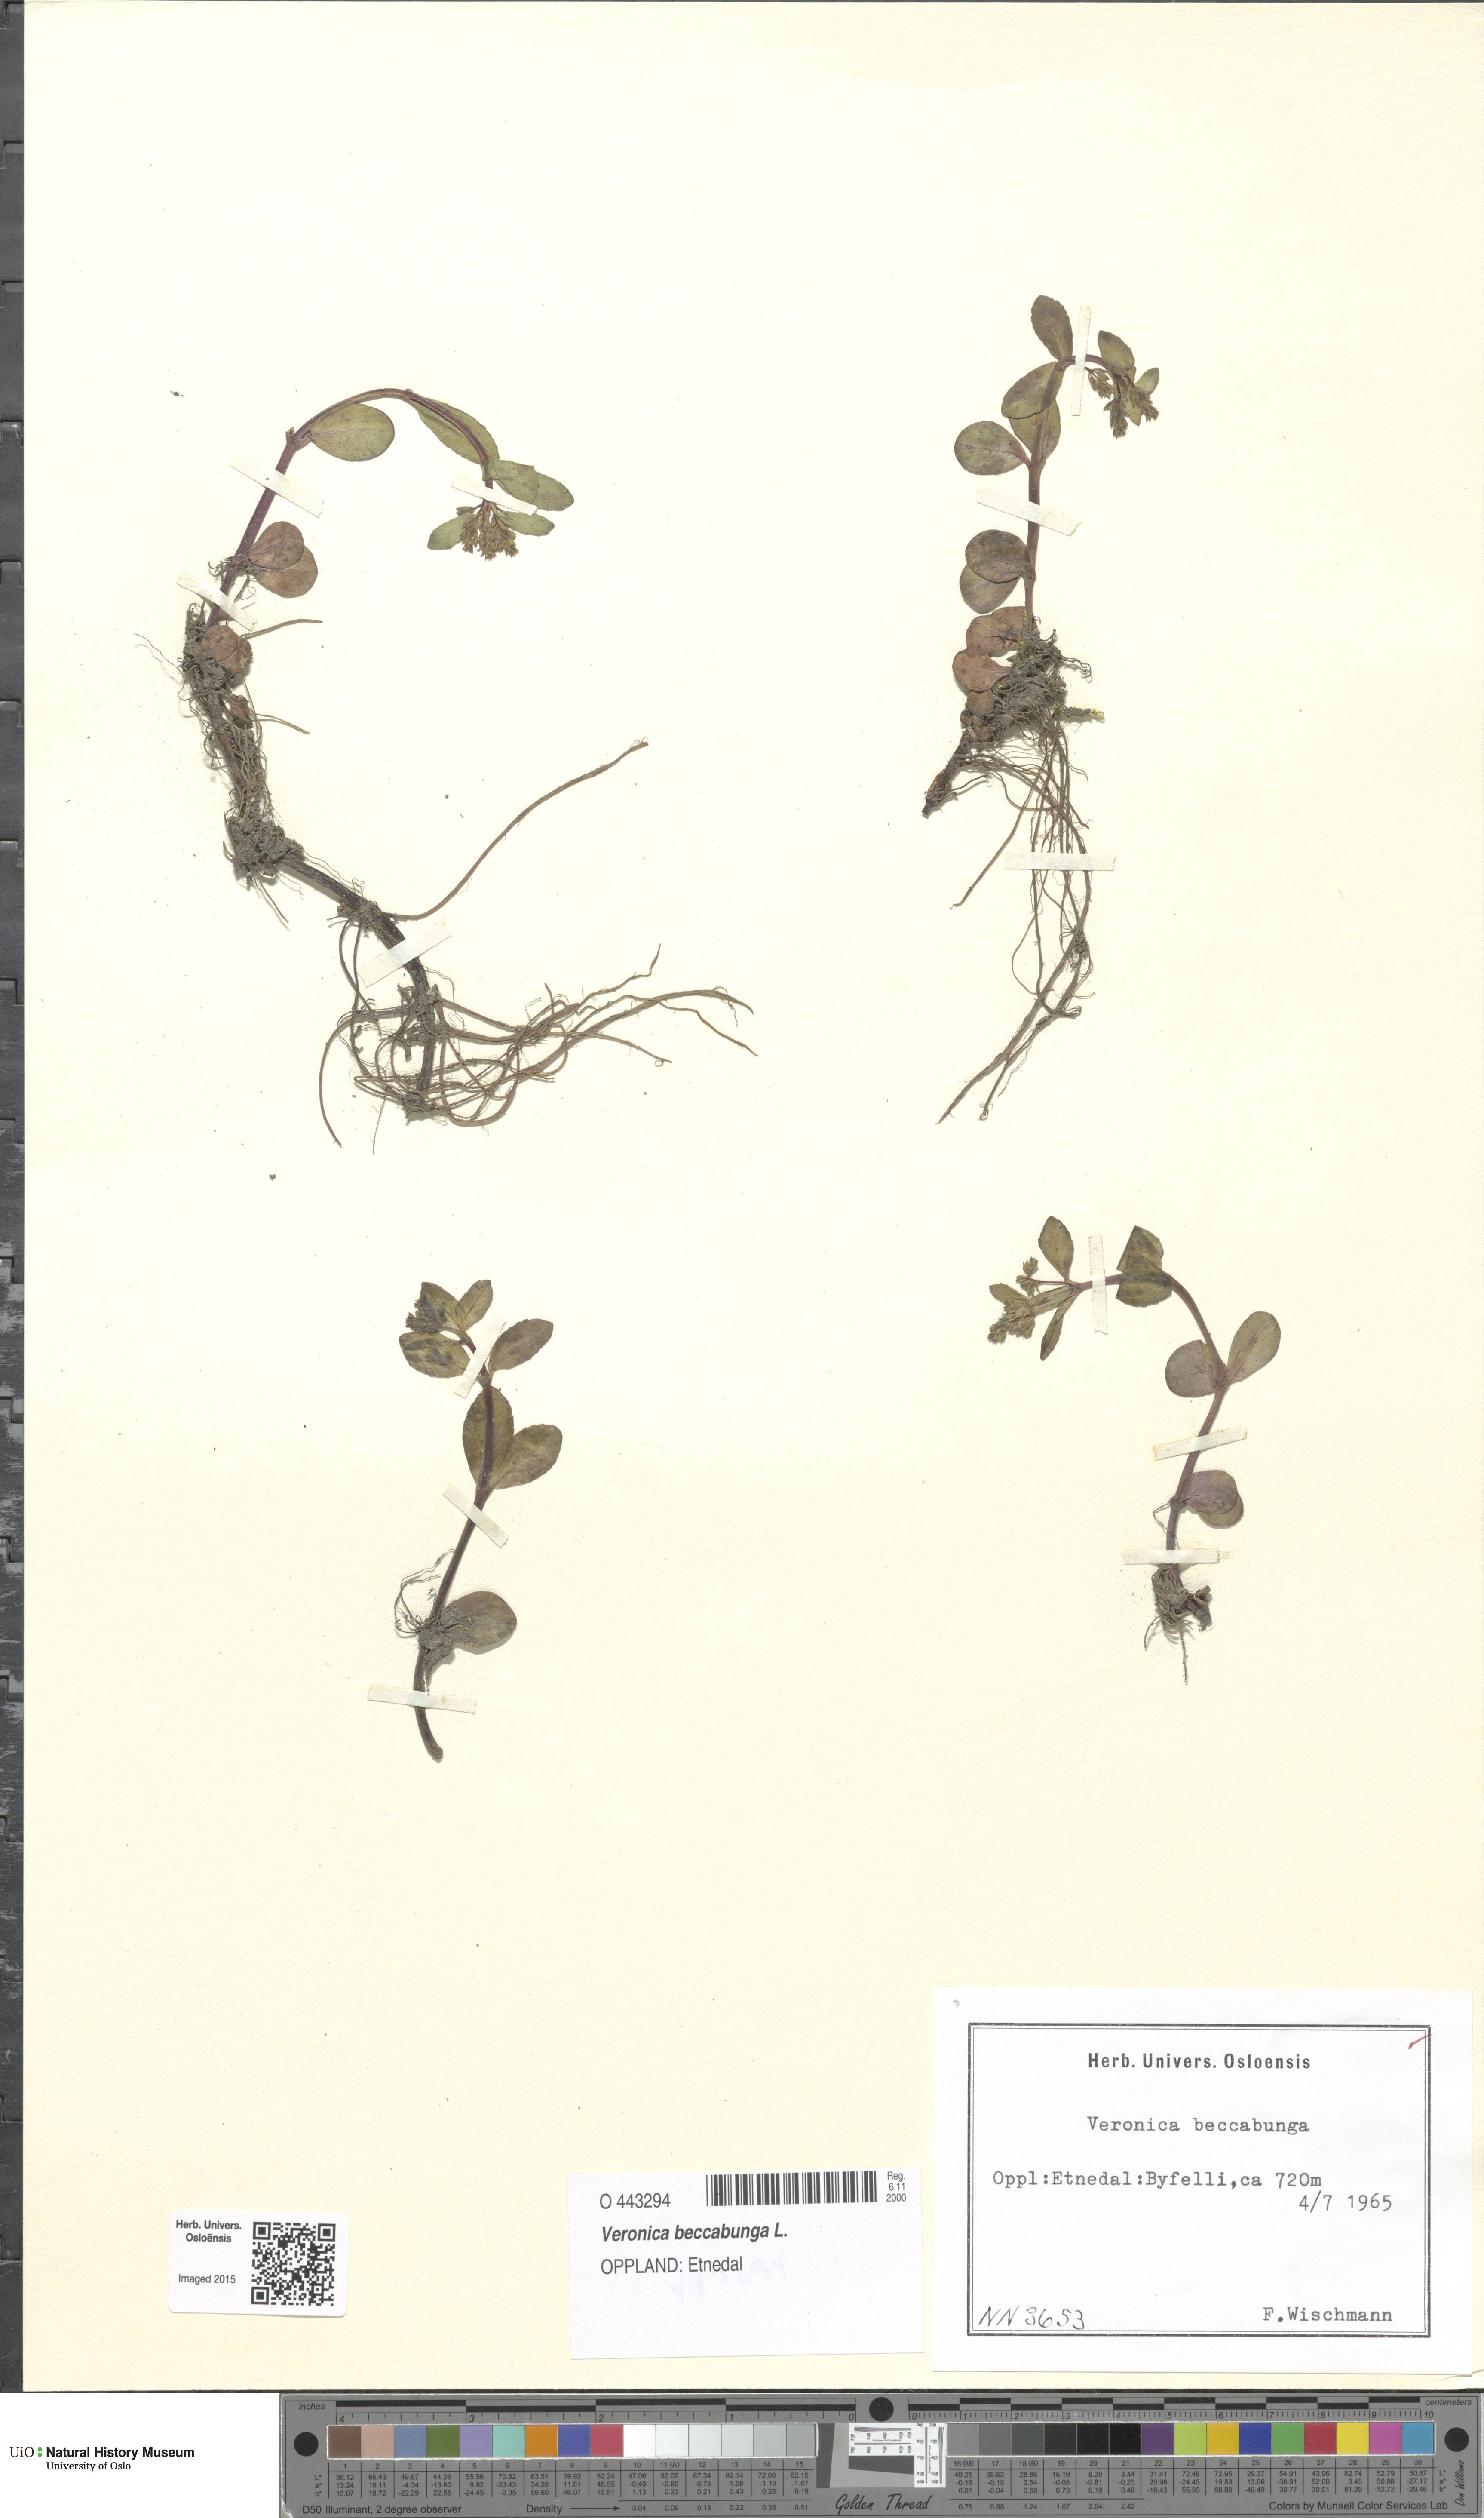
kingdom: Plantae
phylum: Tracheophyta
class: Magnoliopsida
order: Lamiales
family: Plantaginaceae
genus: Veronica
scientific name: Veronica beccabunga
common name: Brooklime
